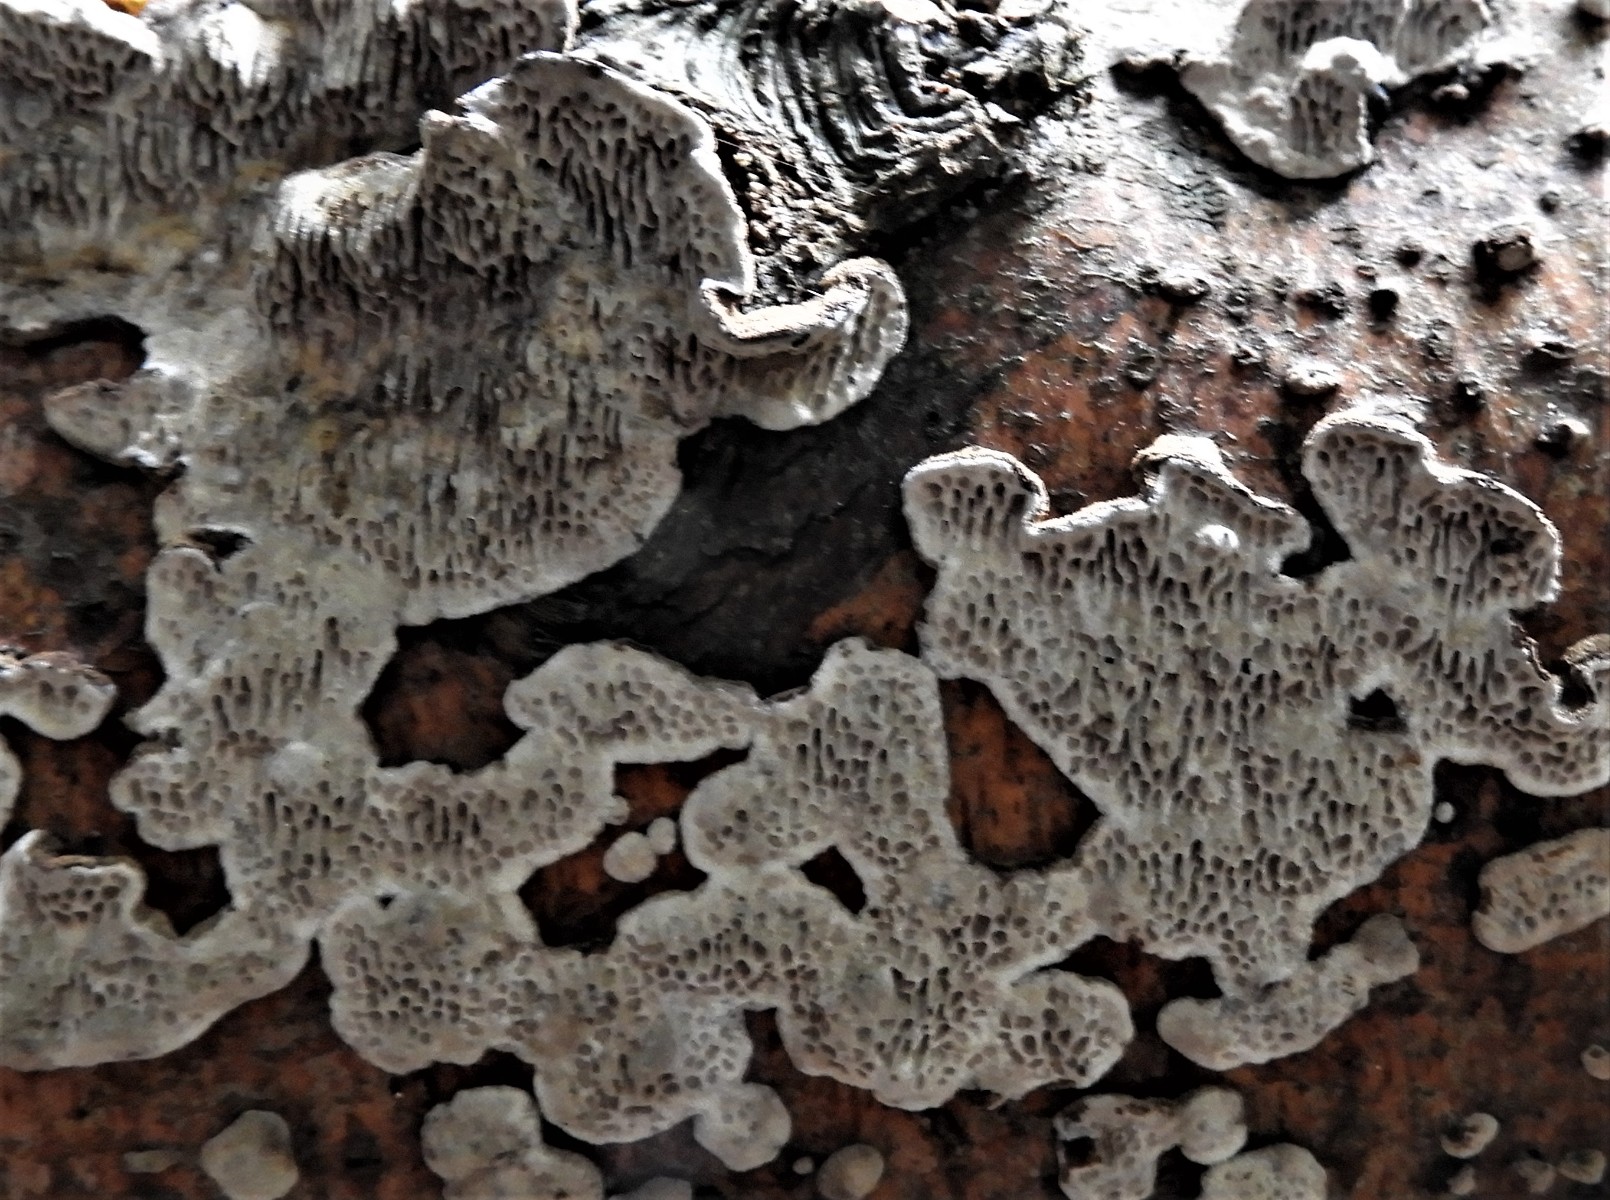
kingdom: Fungi
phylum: Basidiomycota
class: Agaricomycetes
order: Polyporales
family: Polyporaceae
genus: Podofomes
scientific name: Podofomes mollis
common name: blød begporesvamp
